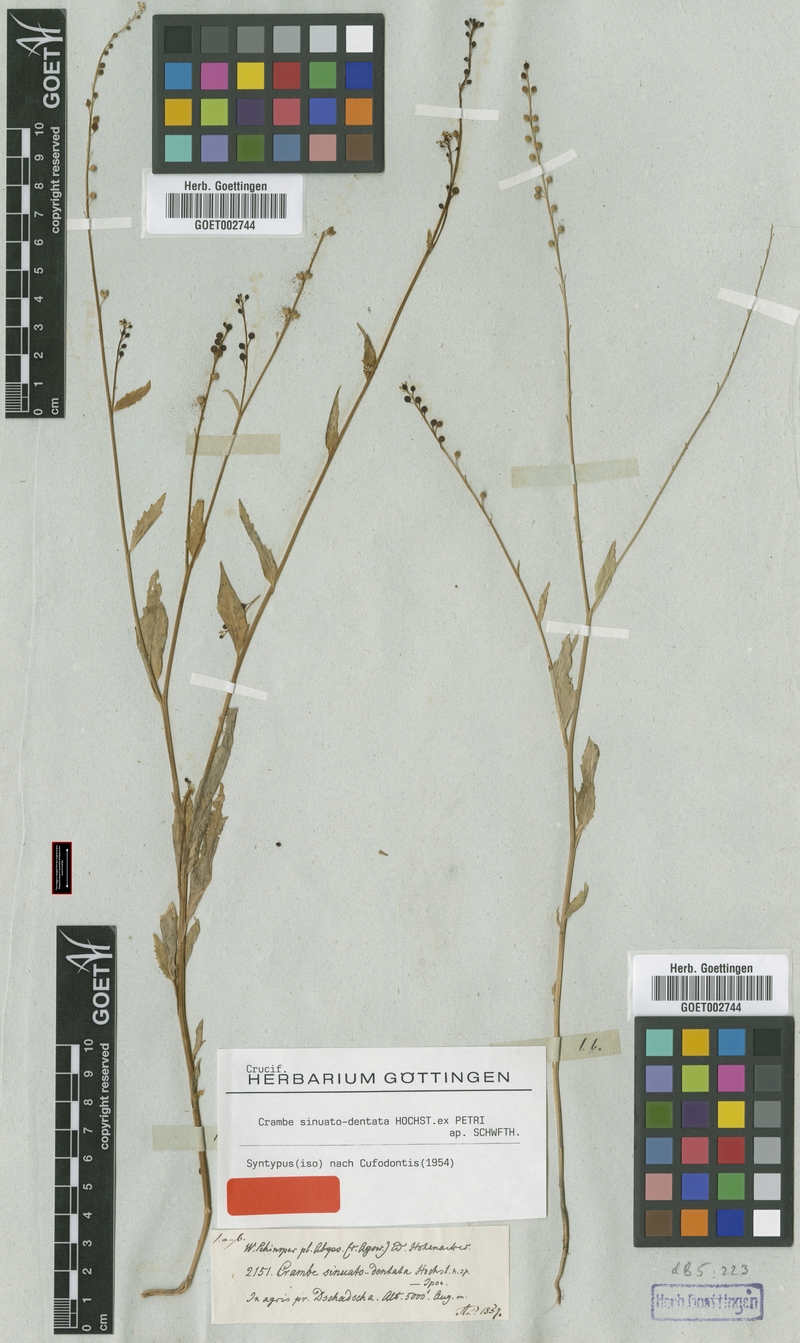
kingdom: Plantae
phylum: Tracheophyta
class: Magnoliopsida
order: Brassicales
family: Brassicaceae
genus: Crambe
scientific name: Crambe sinuatodentata
